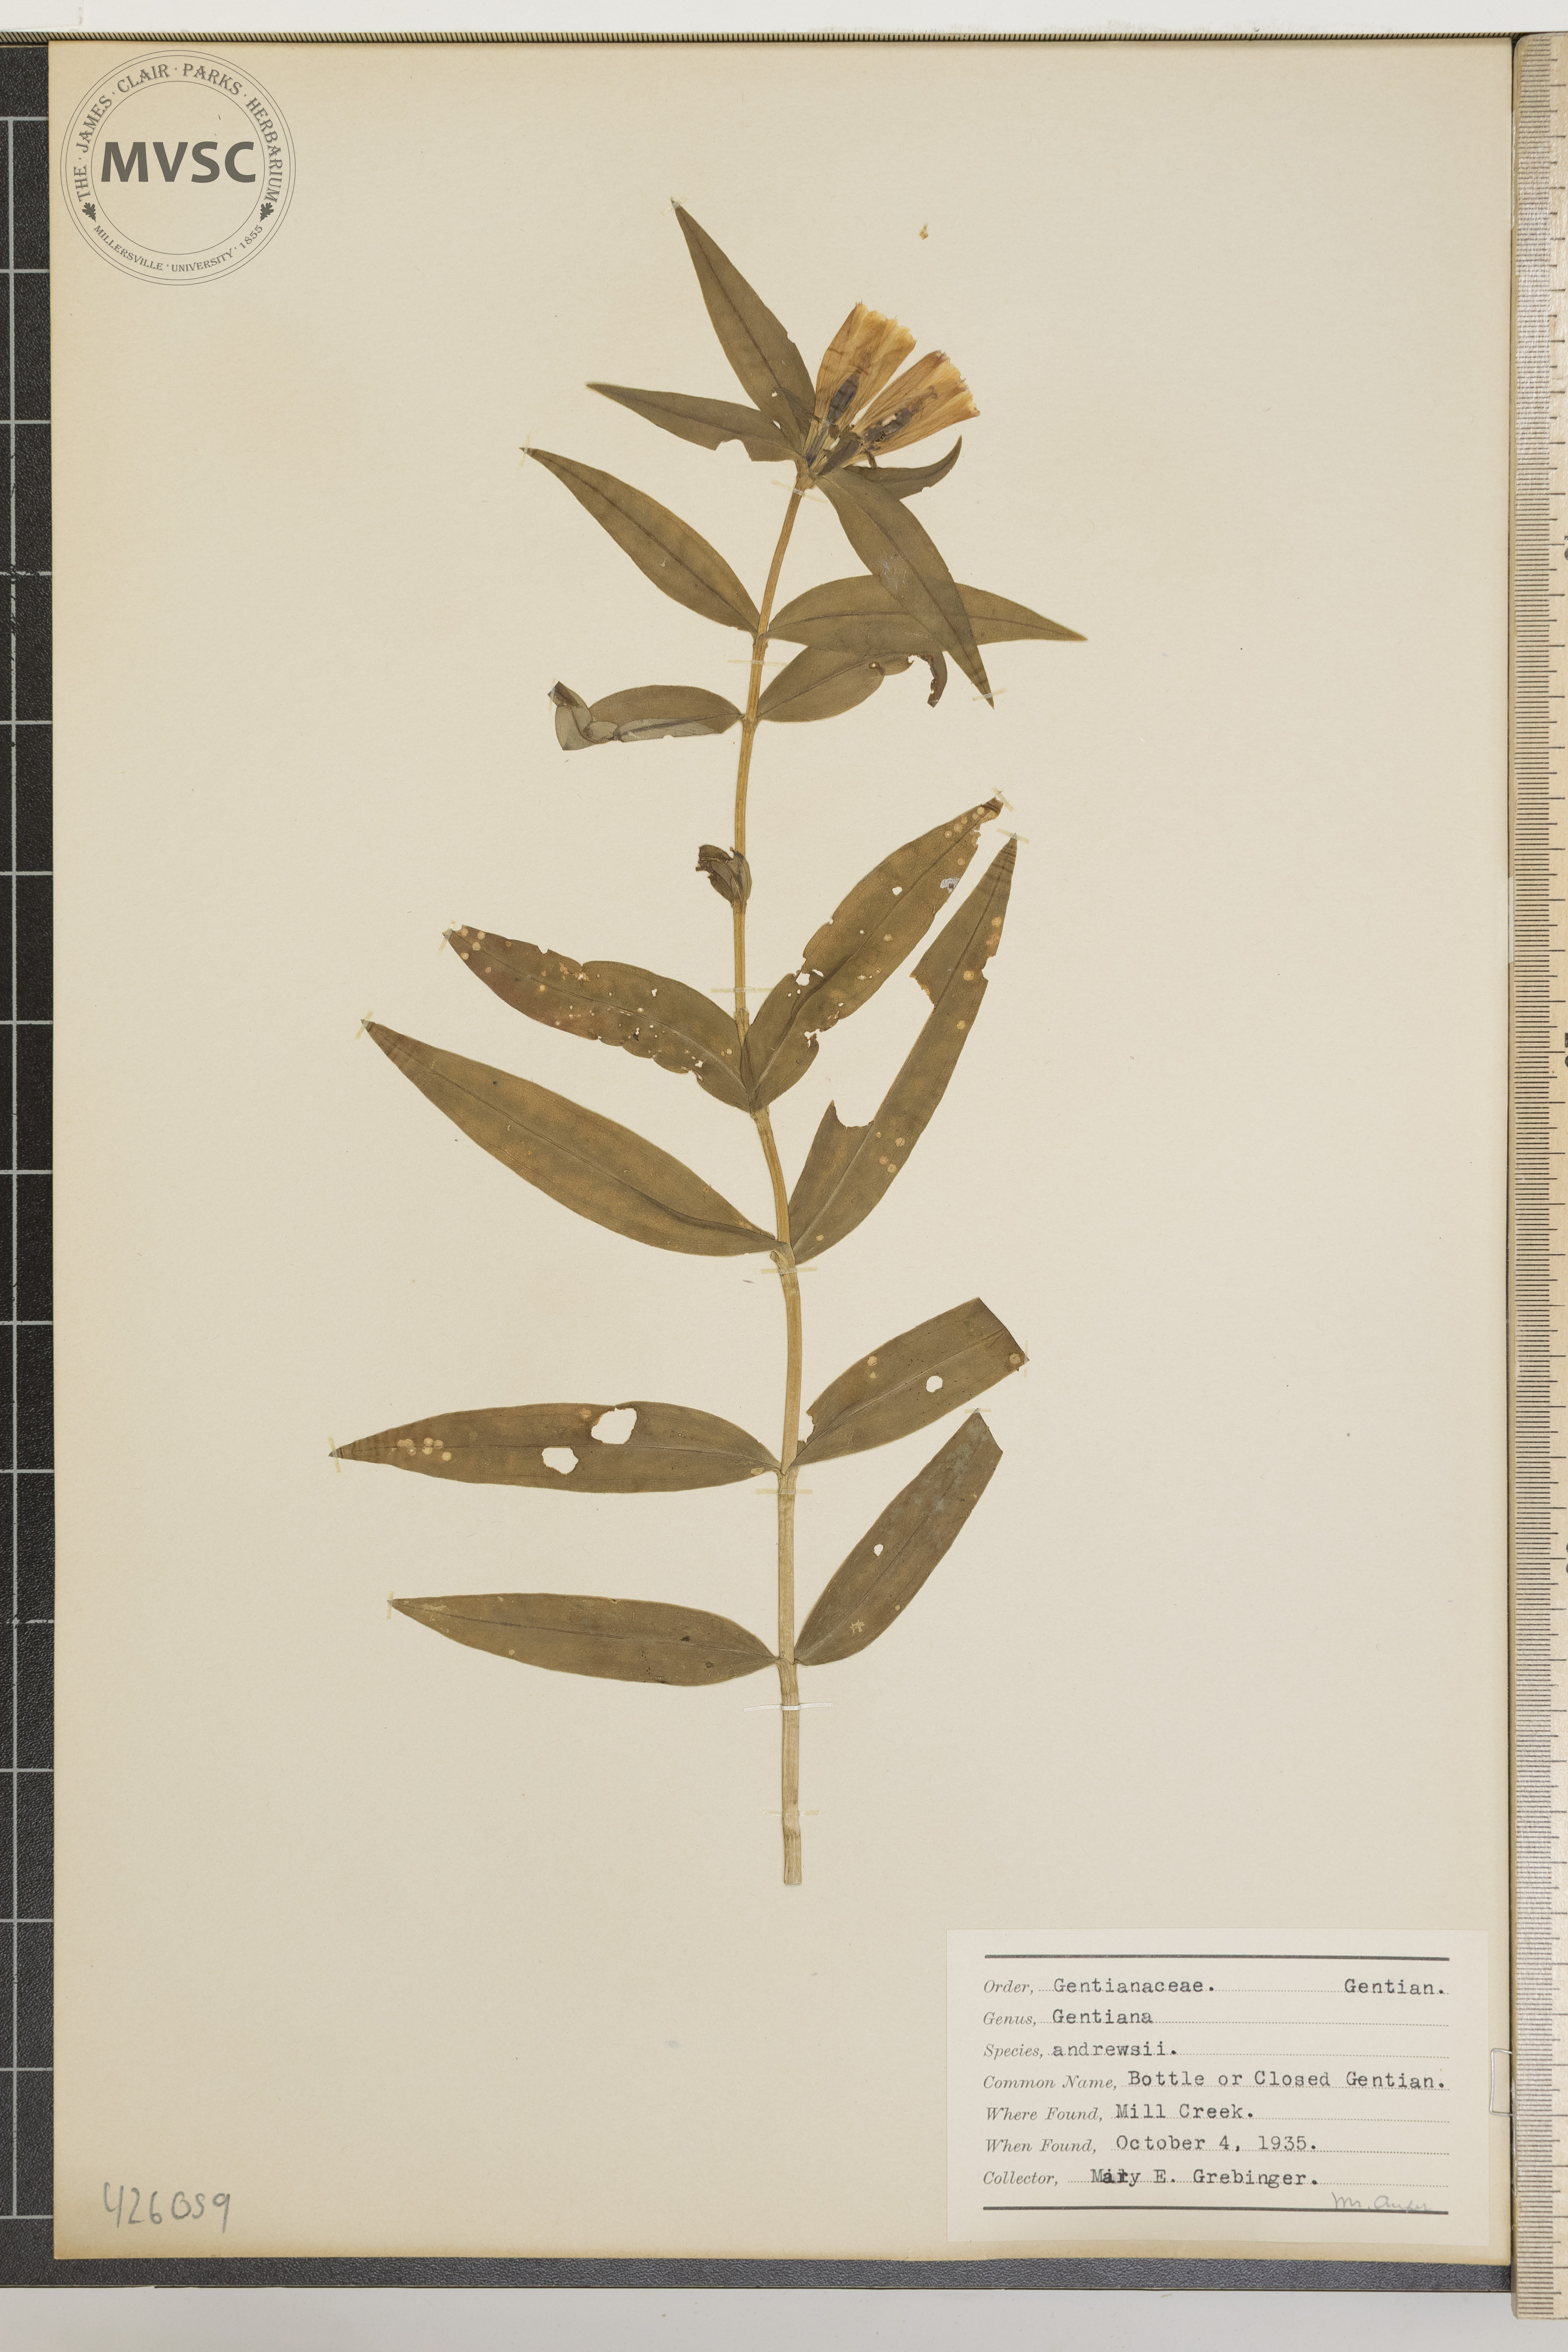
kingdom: Plantae
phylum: Tracheophyta
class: Magnoliopsida
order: Gentianales
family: Gentianaceae
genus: Gentiana
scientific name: Gentiana andrewsii
